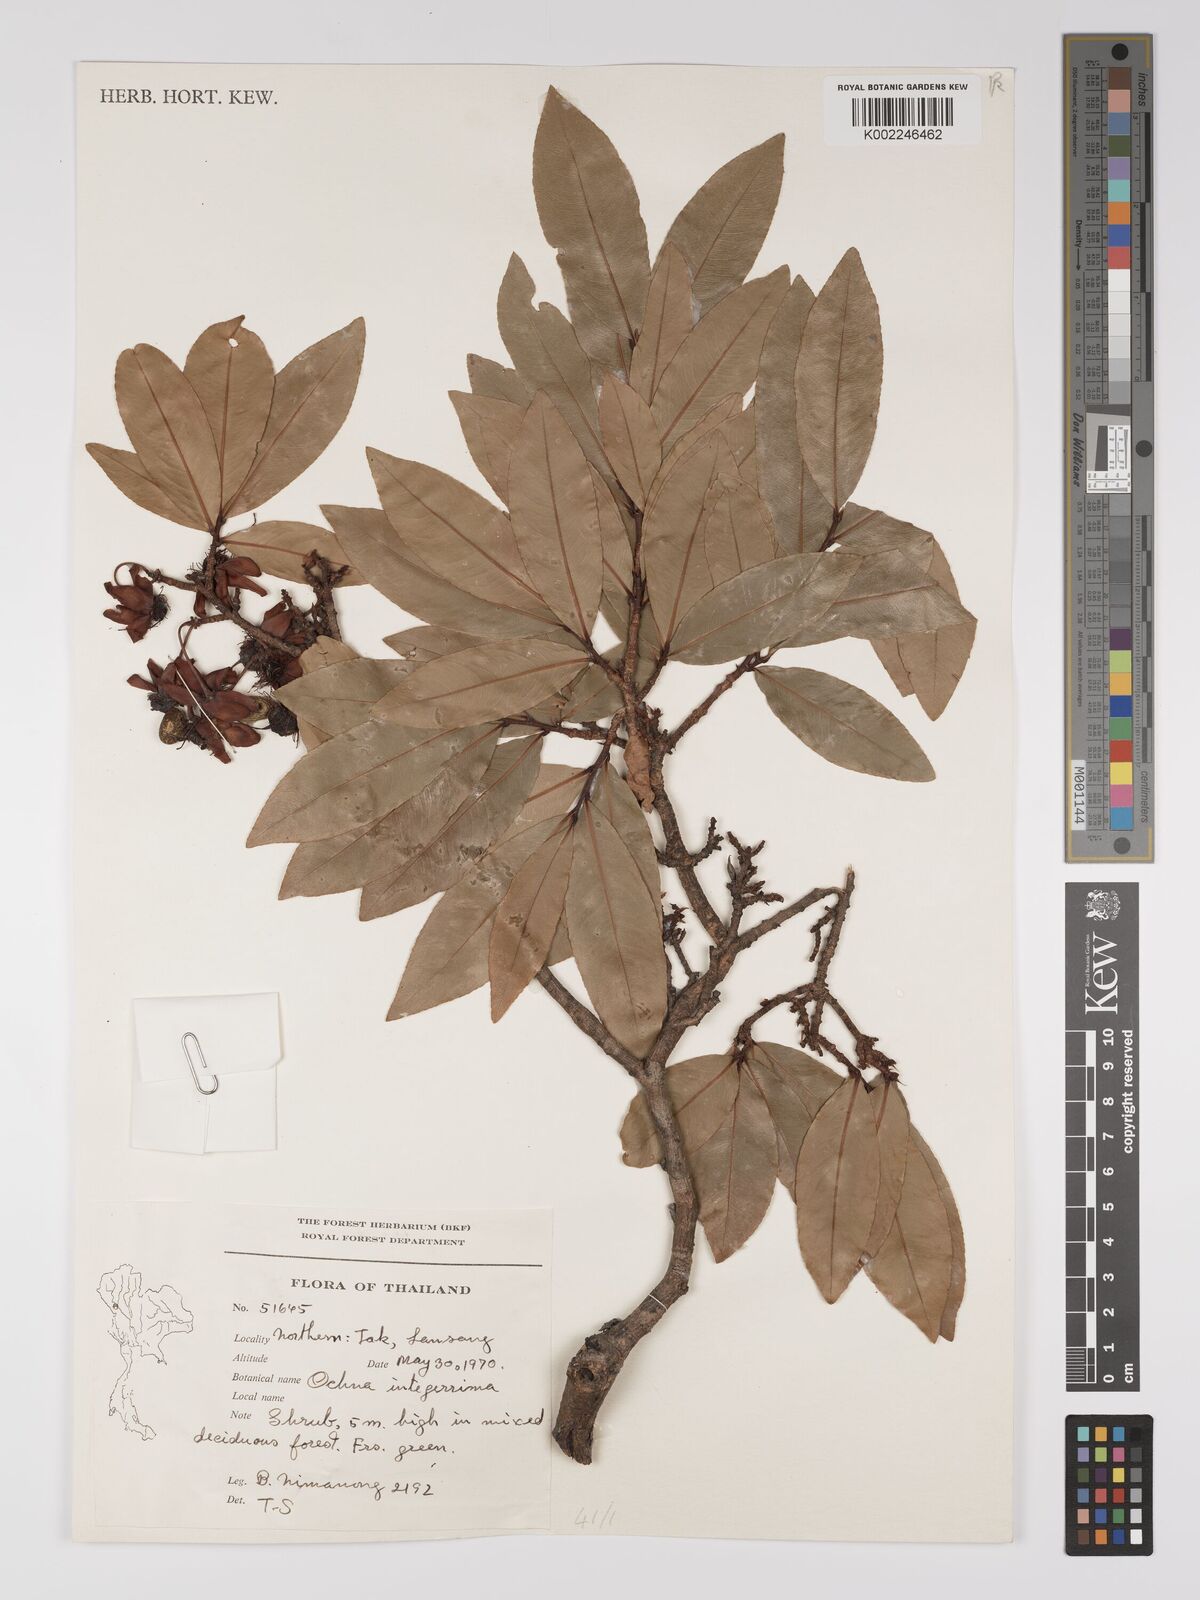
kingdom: Plantae
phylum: Tracheophyta
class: Magnoliopsida
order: Malpighiales
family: Ochnaceae
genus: Ochna
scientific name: Ochna integerrima
